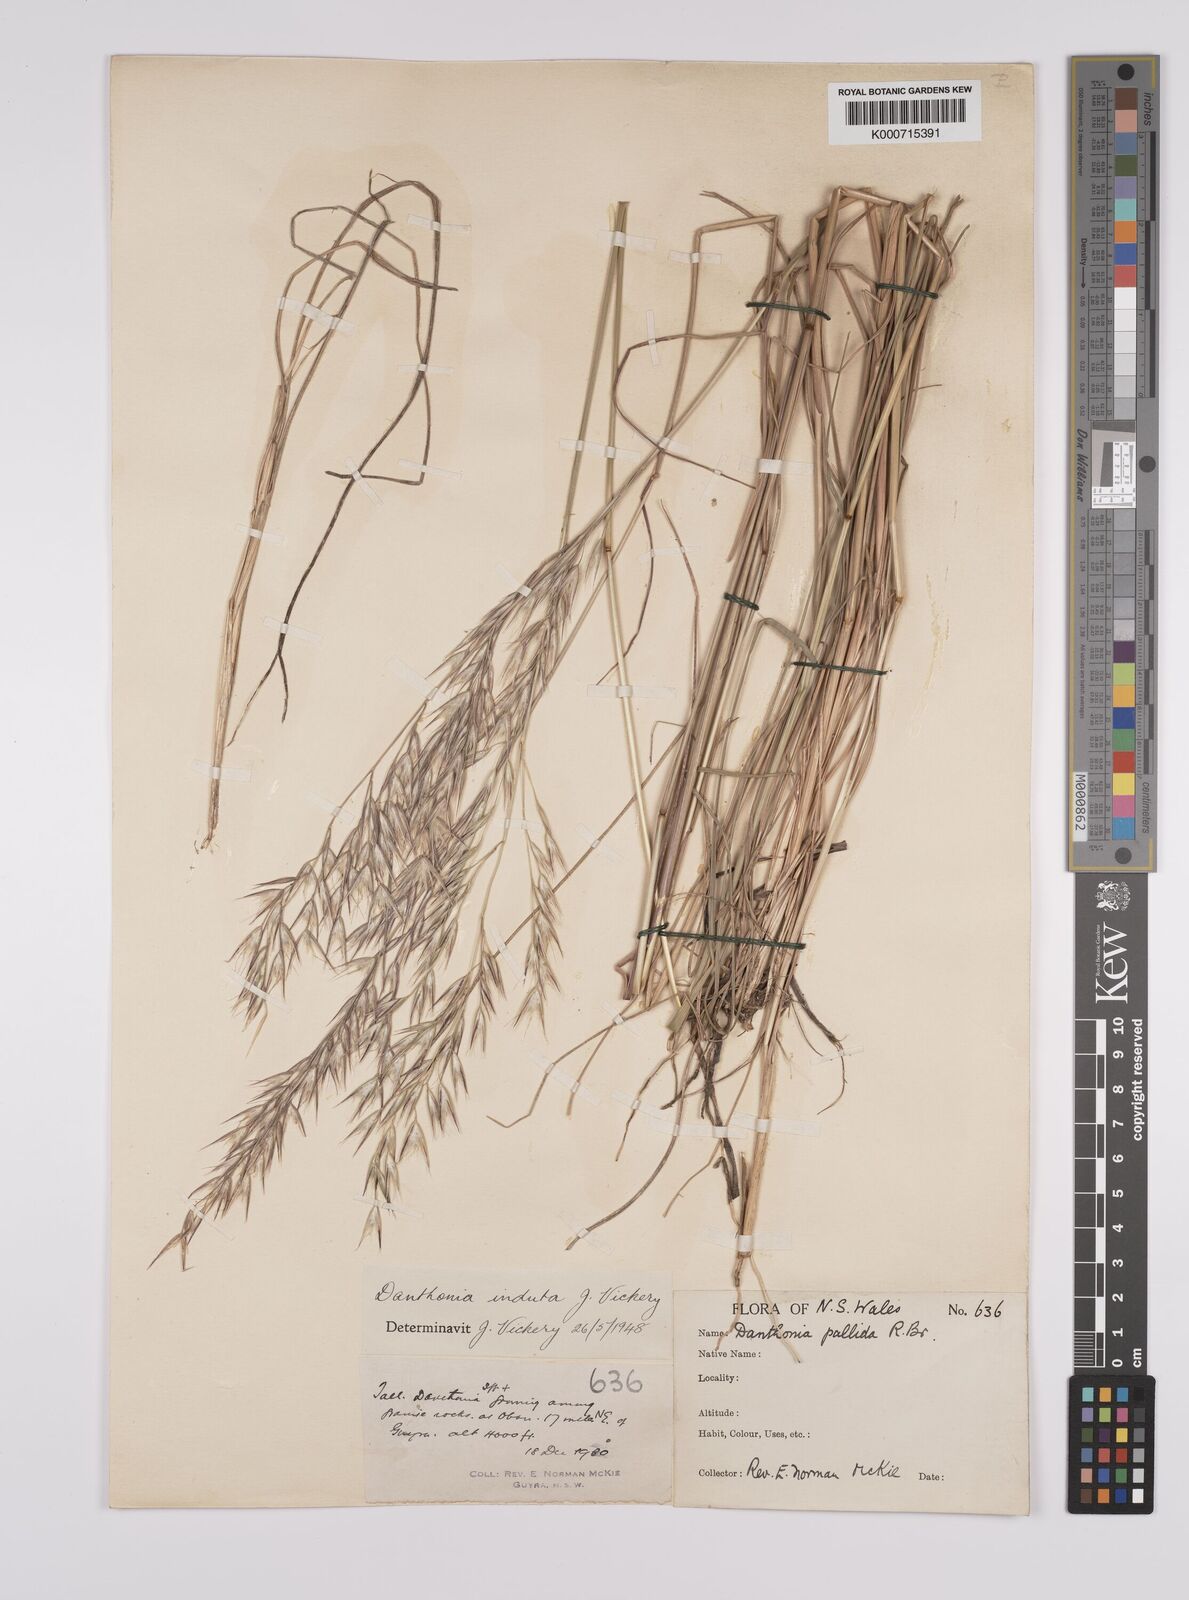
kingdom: Plantae
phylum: Tracheophyta
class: Liliopsida
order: Poales
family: Poaceae
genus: Rytidosperma
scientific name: Rytidosperma indutum
